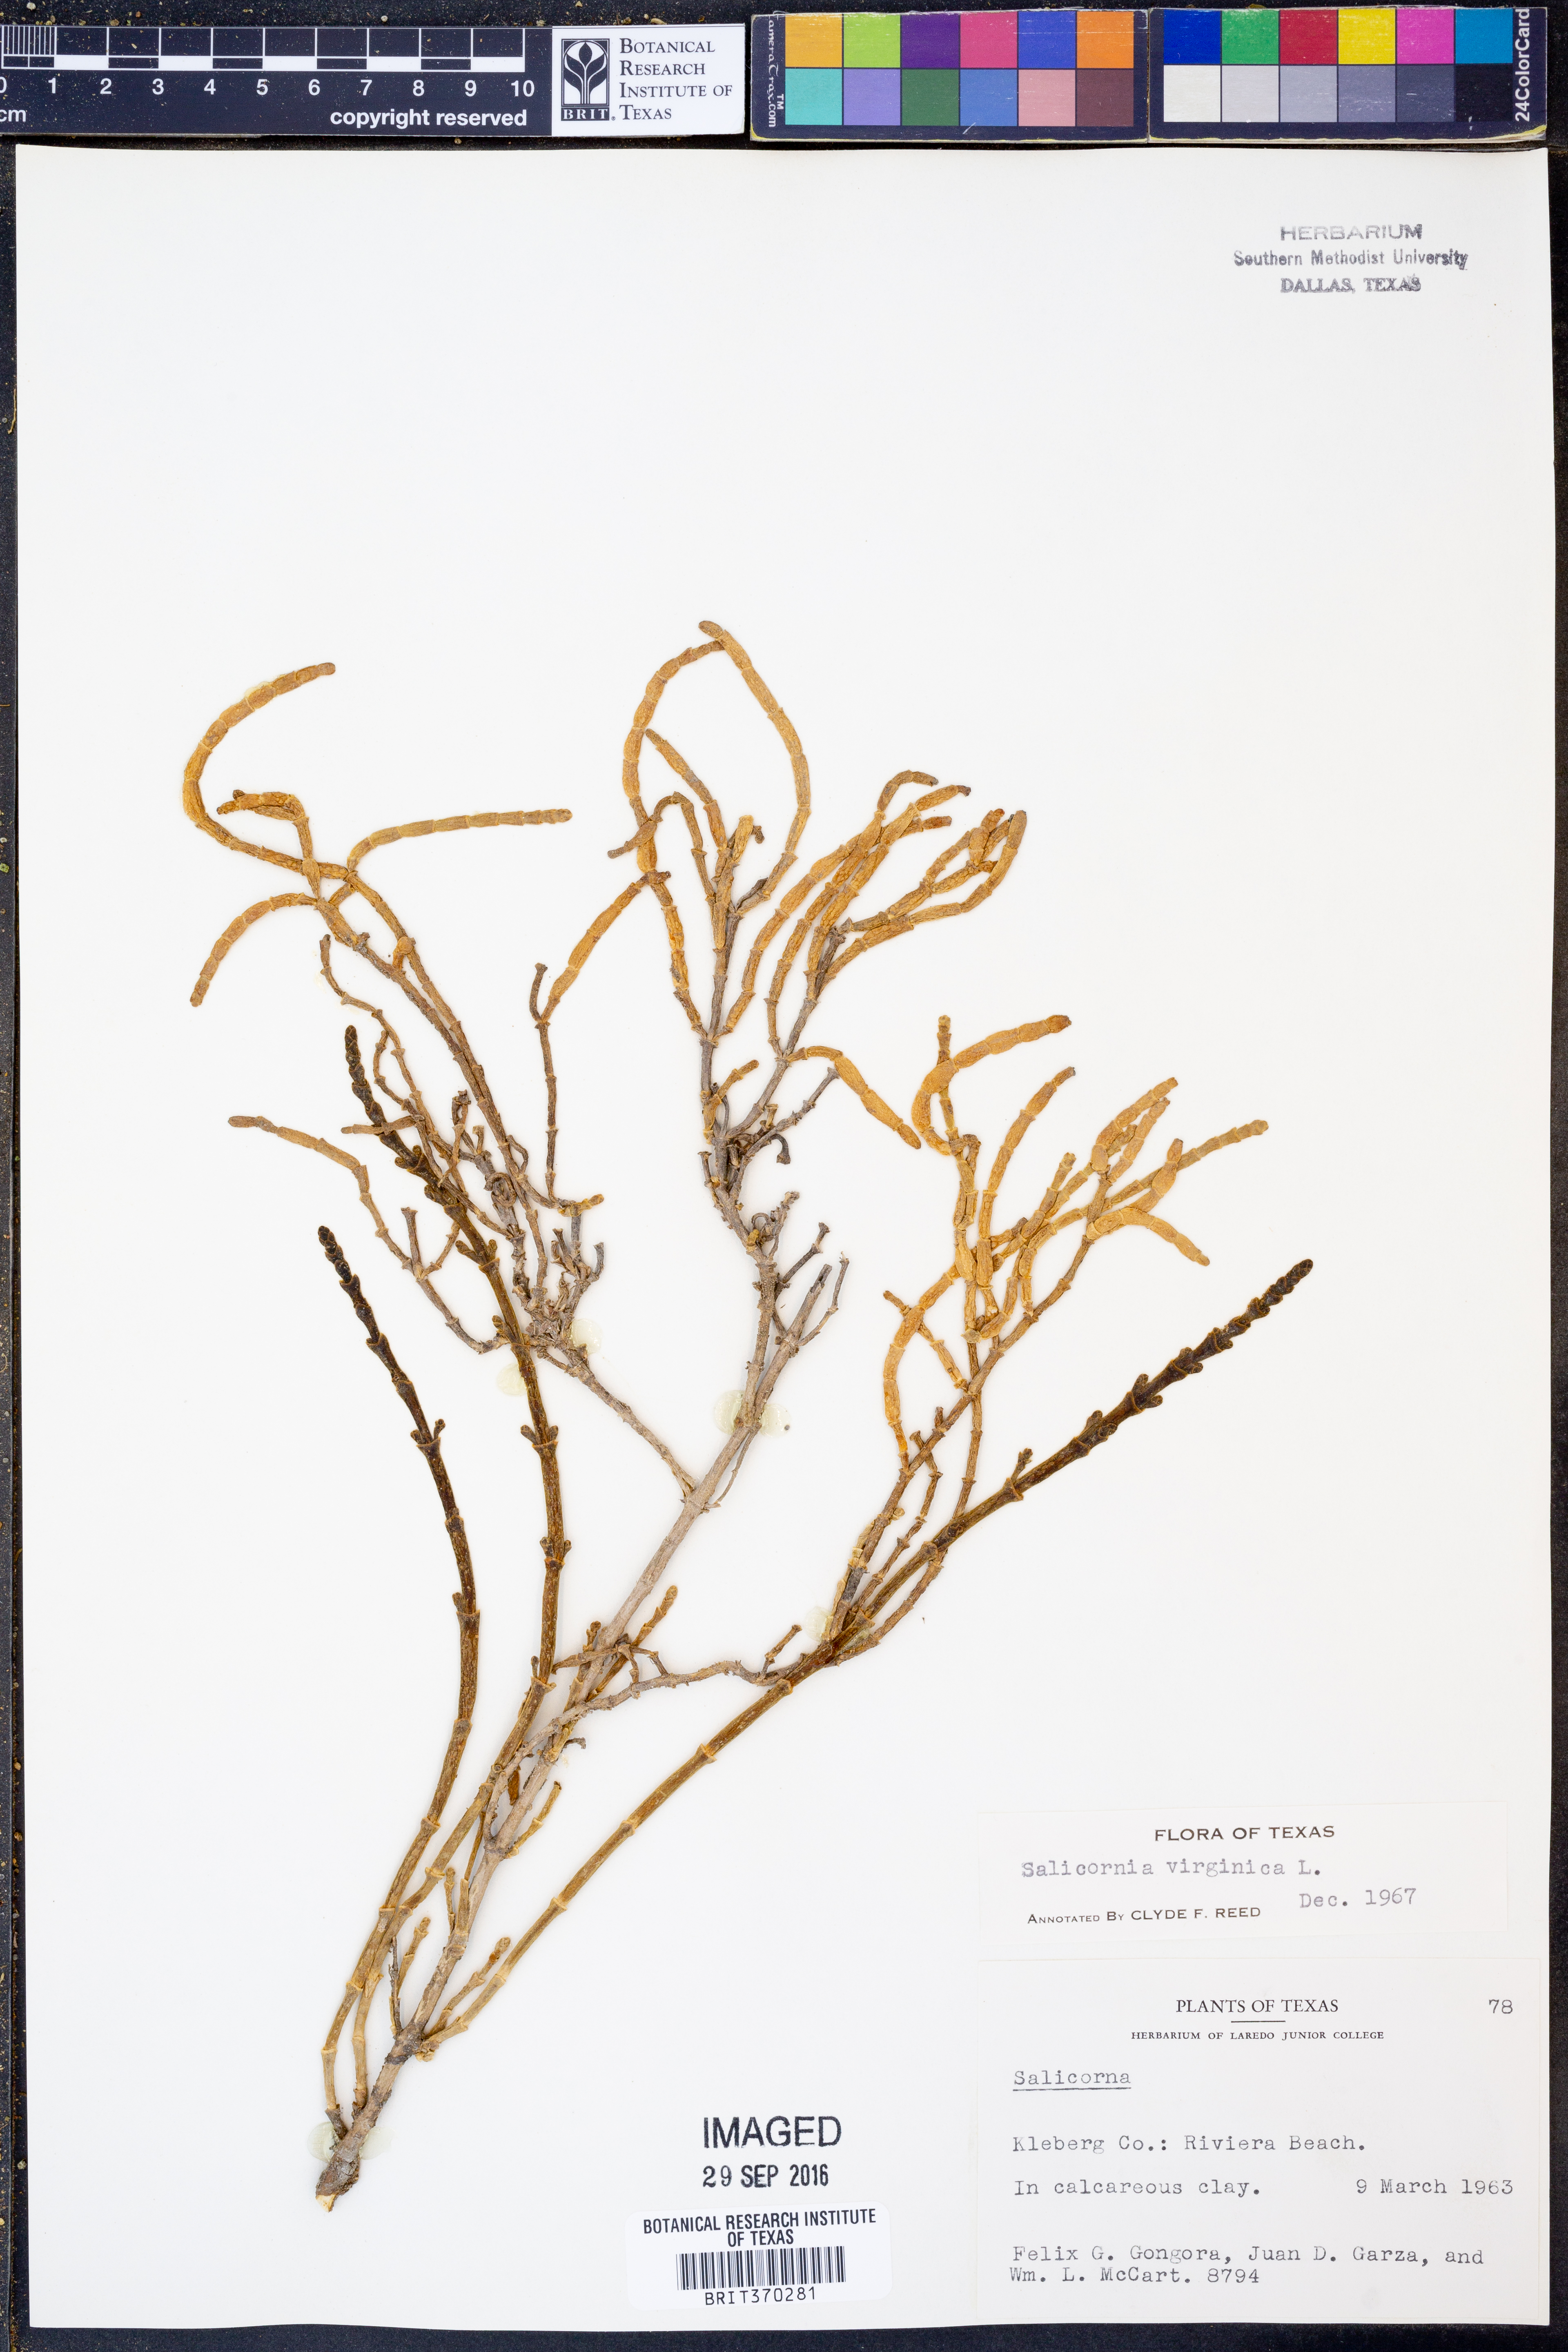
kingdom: Plantae
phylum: Tracheophyta
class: Magnoliopsida
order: Caryophyllales
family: Amaranthaceae
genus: Salicornia
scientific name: Salicornia virginica
